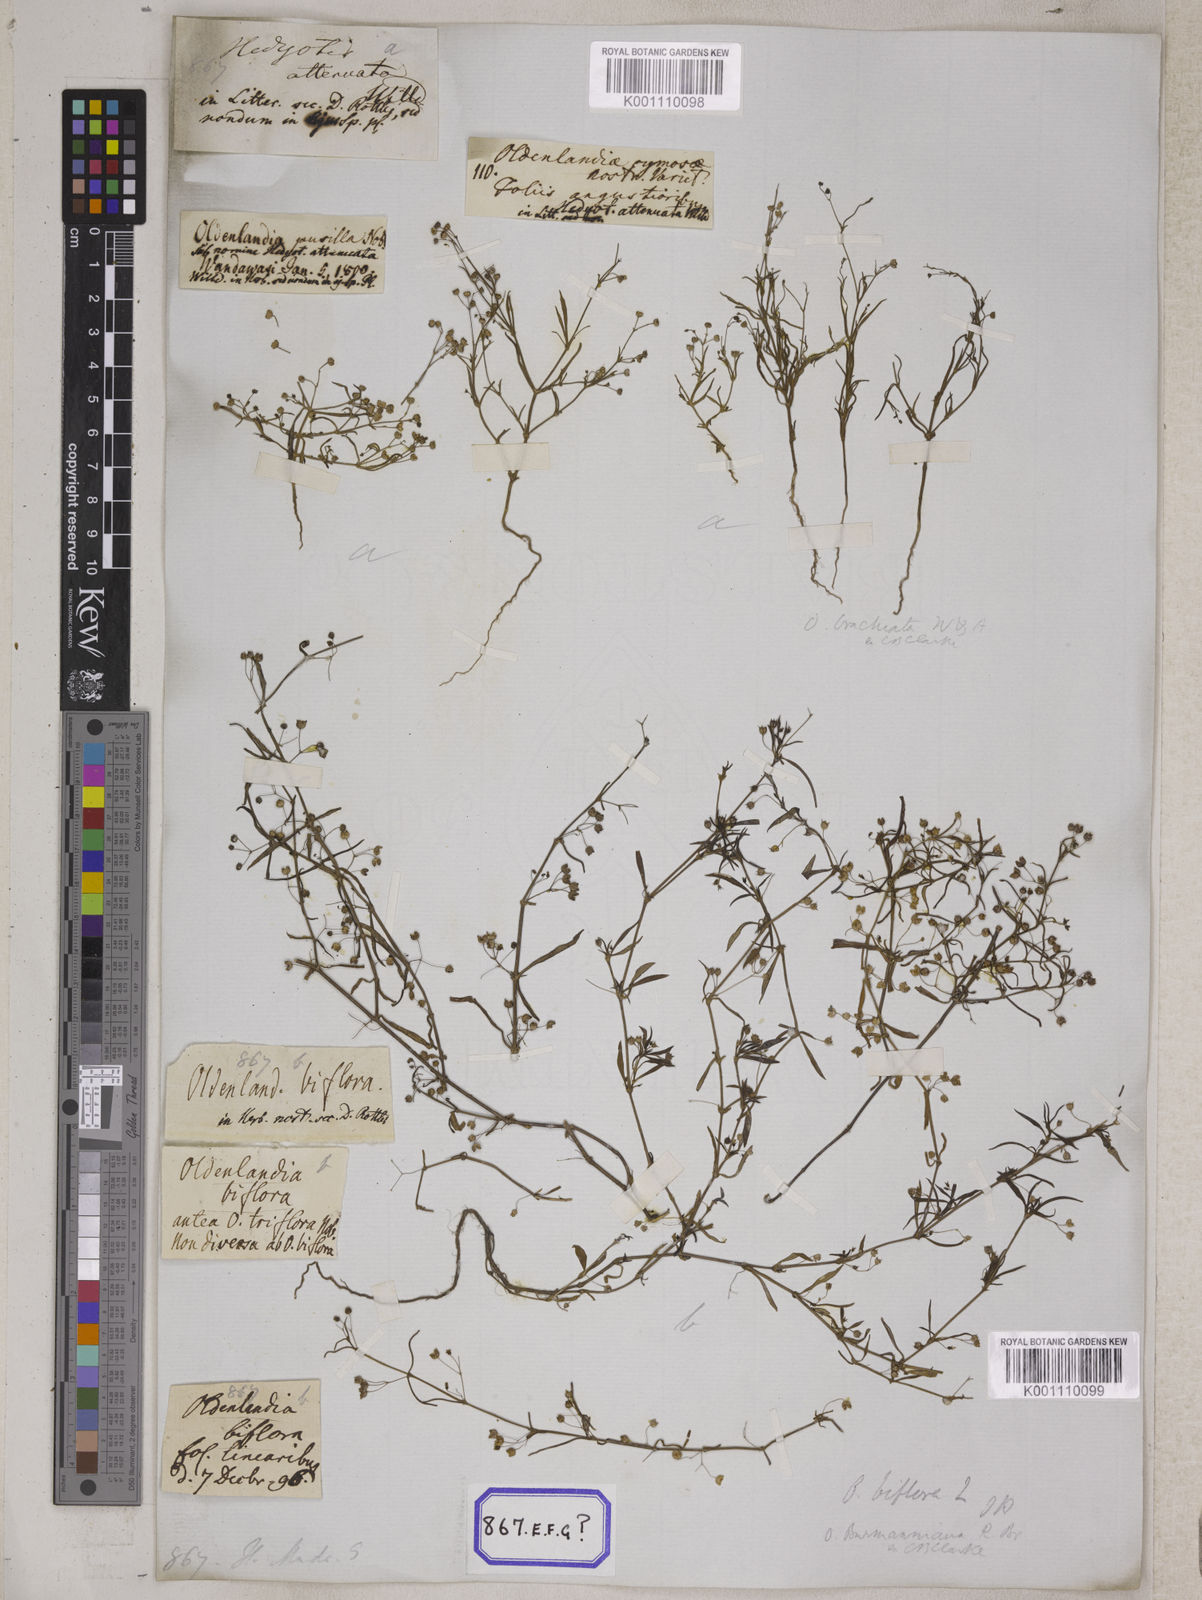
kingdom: Plantae
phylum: Tracheophyta
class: Magnoliopsida
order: Gentianales
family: Rubiaceae
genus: Hedyotis
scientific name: Hedyotis
